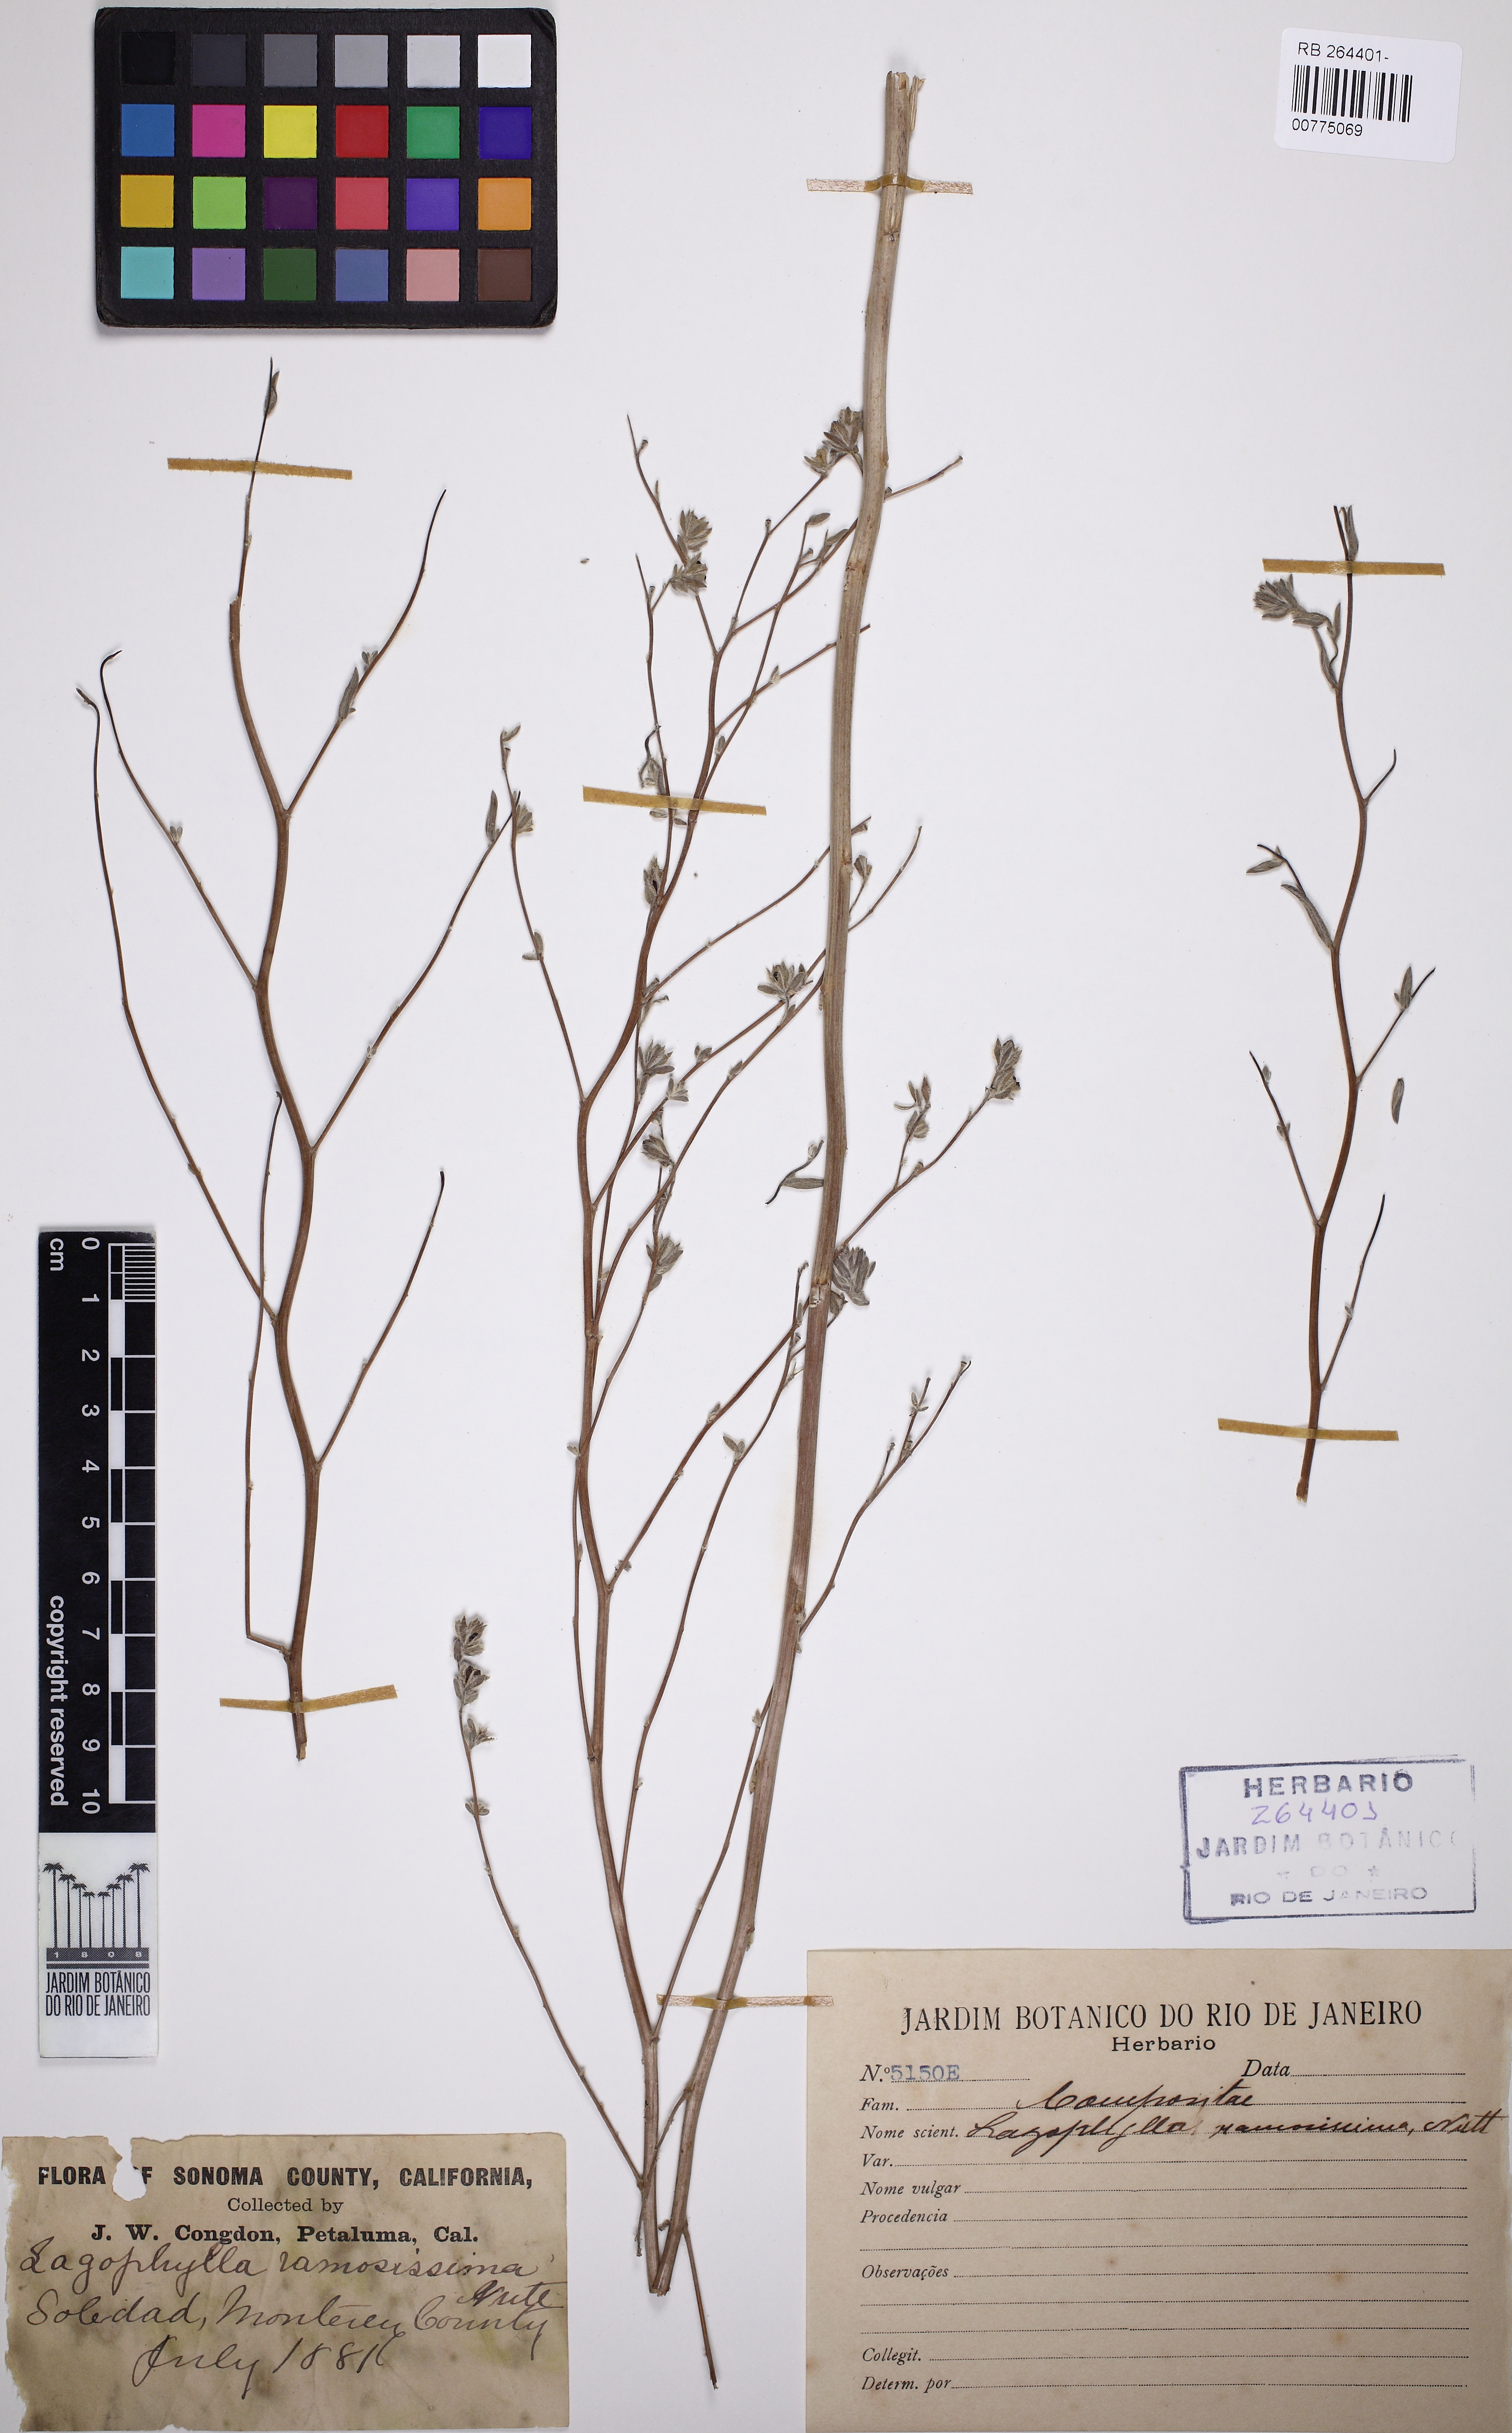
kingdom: Plantae
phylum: Tracheophyta
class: Magnoliopsida
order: Asterales
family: Asteraceae
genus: Lagophylla
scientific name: Lagophylla ramosissima
